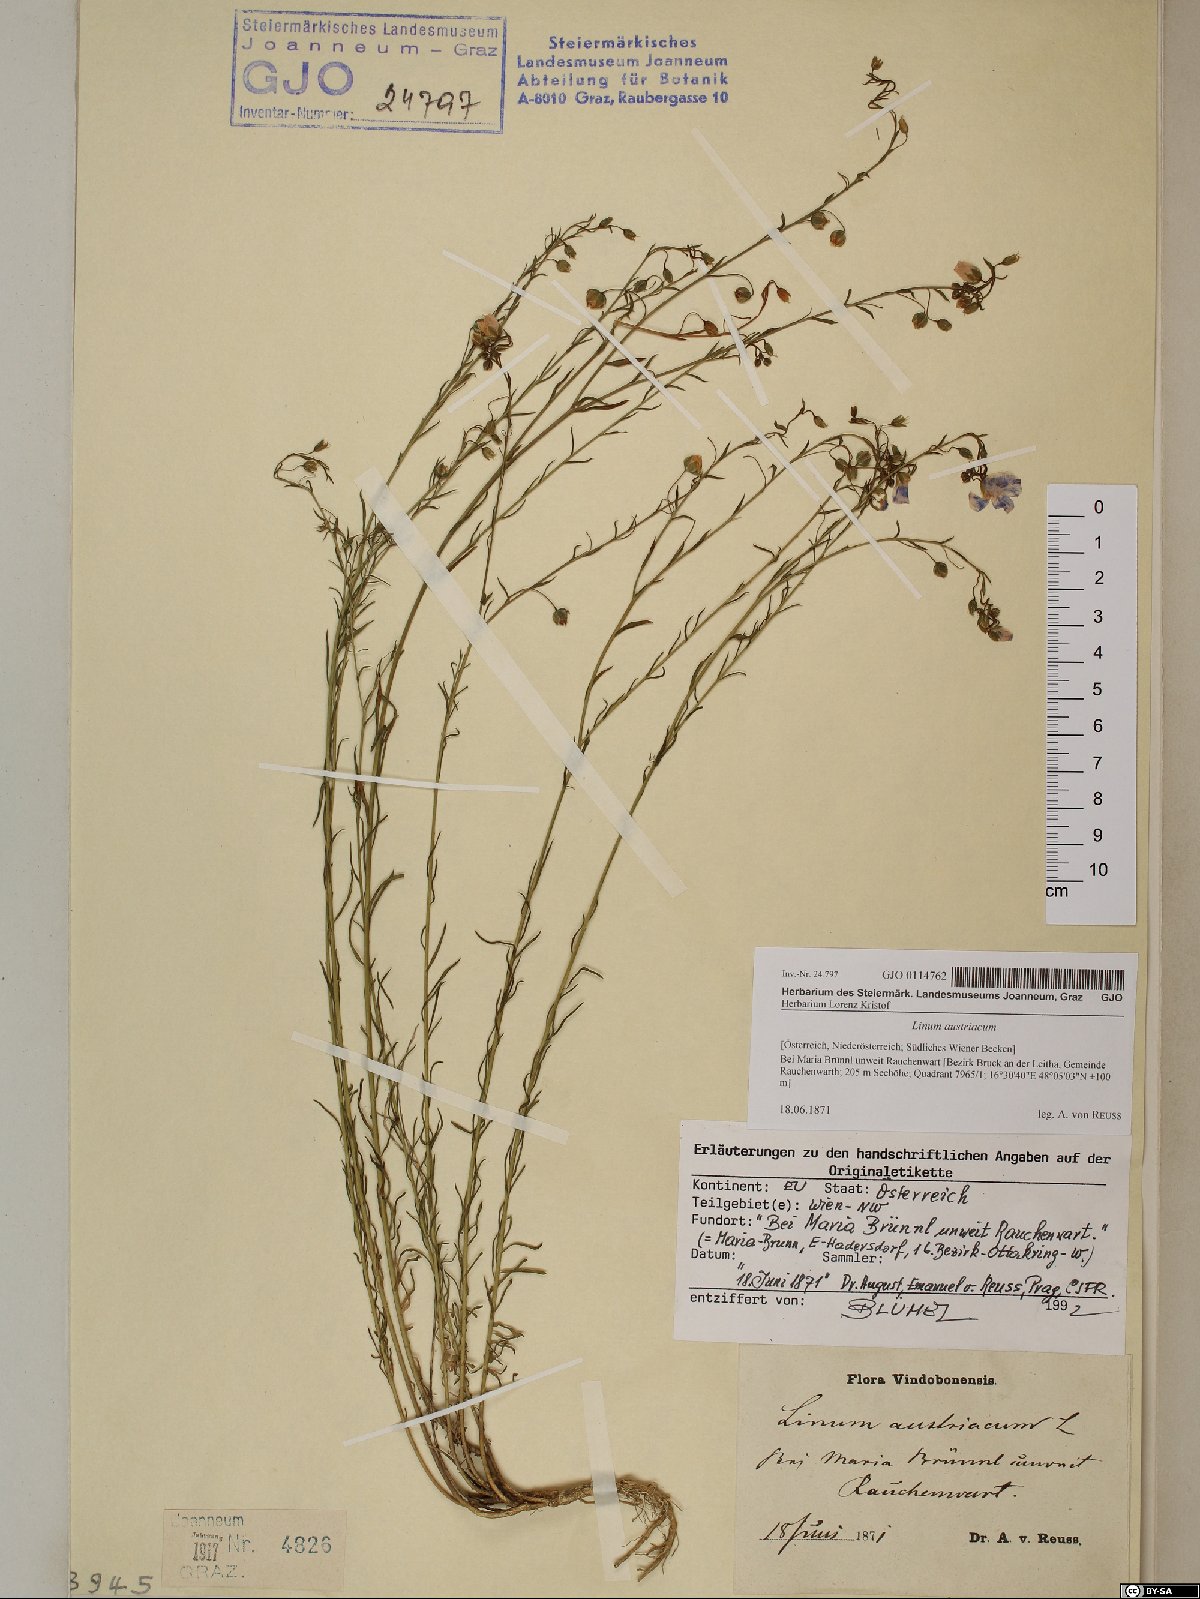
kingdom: Plantae
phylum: Tracheophyta
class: Magnoliopsida
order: Malpighiales
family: Linaceae
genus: Linum
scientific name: Linum austriacum
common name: Austrian flax
